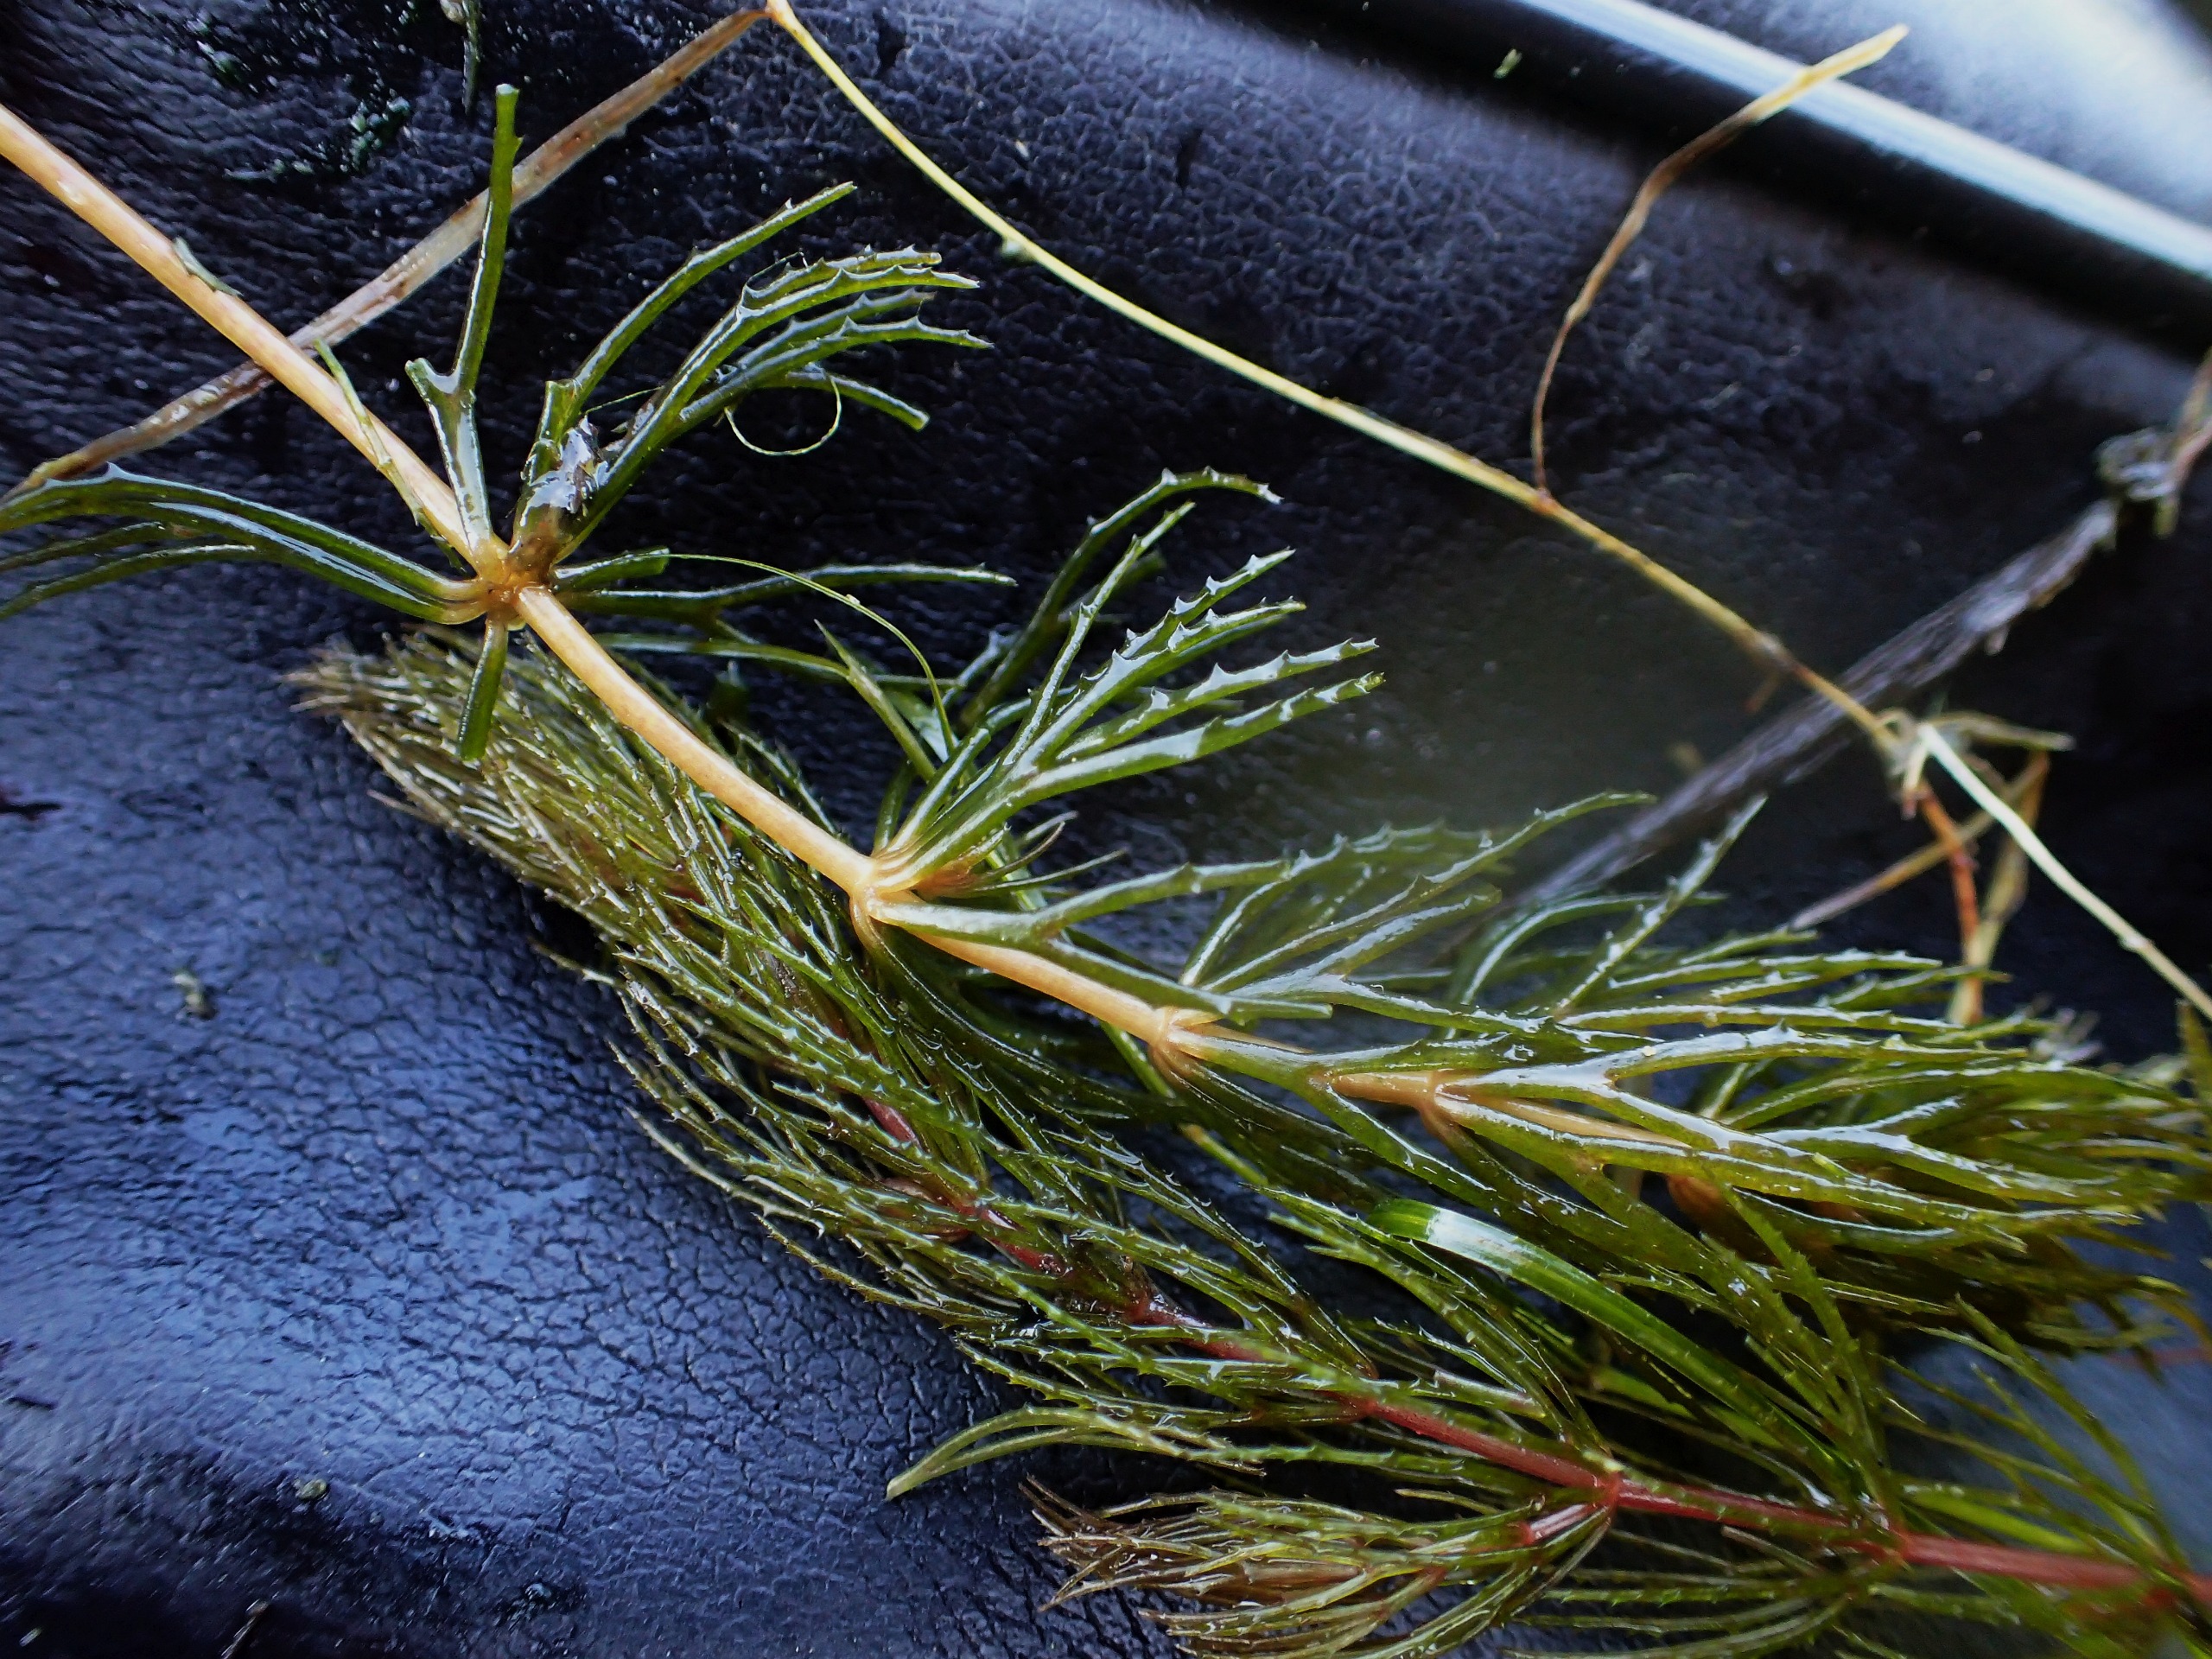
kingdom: Plantae
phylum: Tracheophyta
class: Magnoliopsida
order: Ceratophyllales
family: Ceratophyllaceae
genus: Ceratophyllum
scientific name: Ceratophyllum demersum
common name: Tornfrøet hornblad
